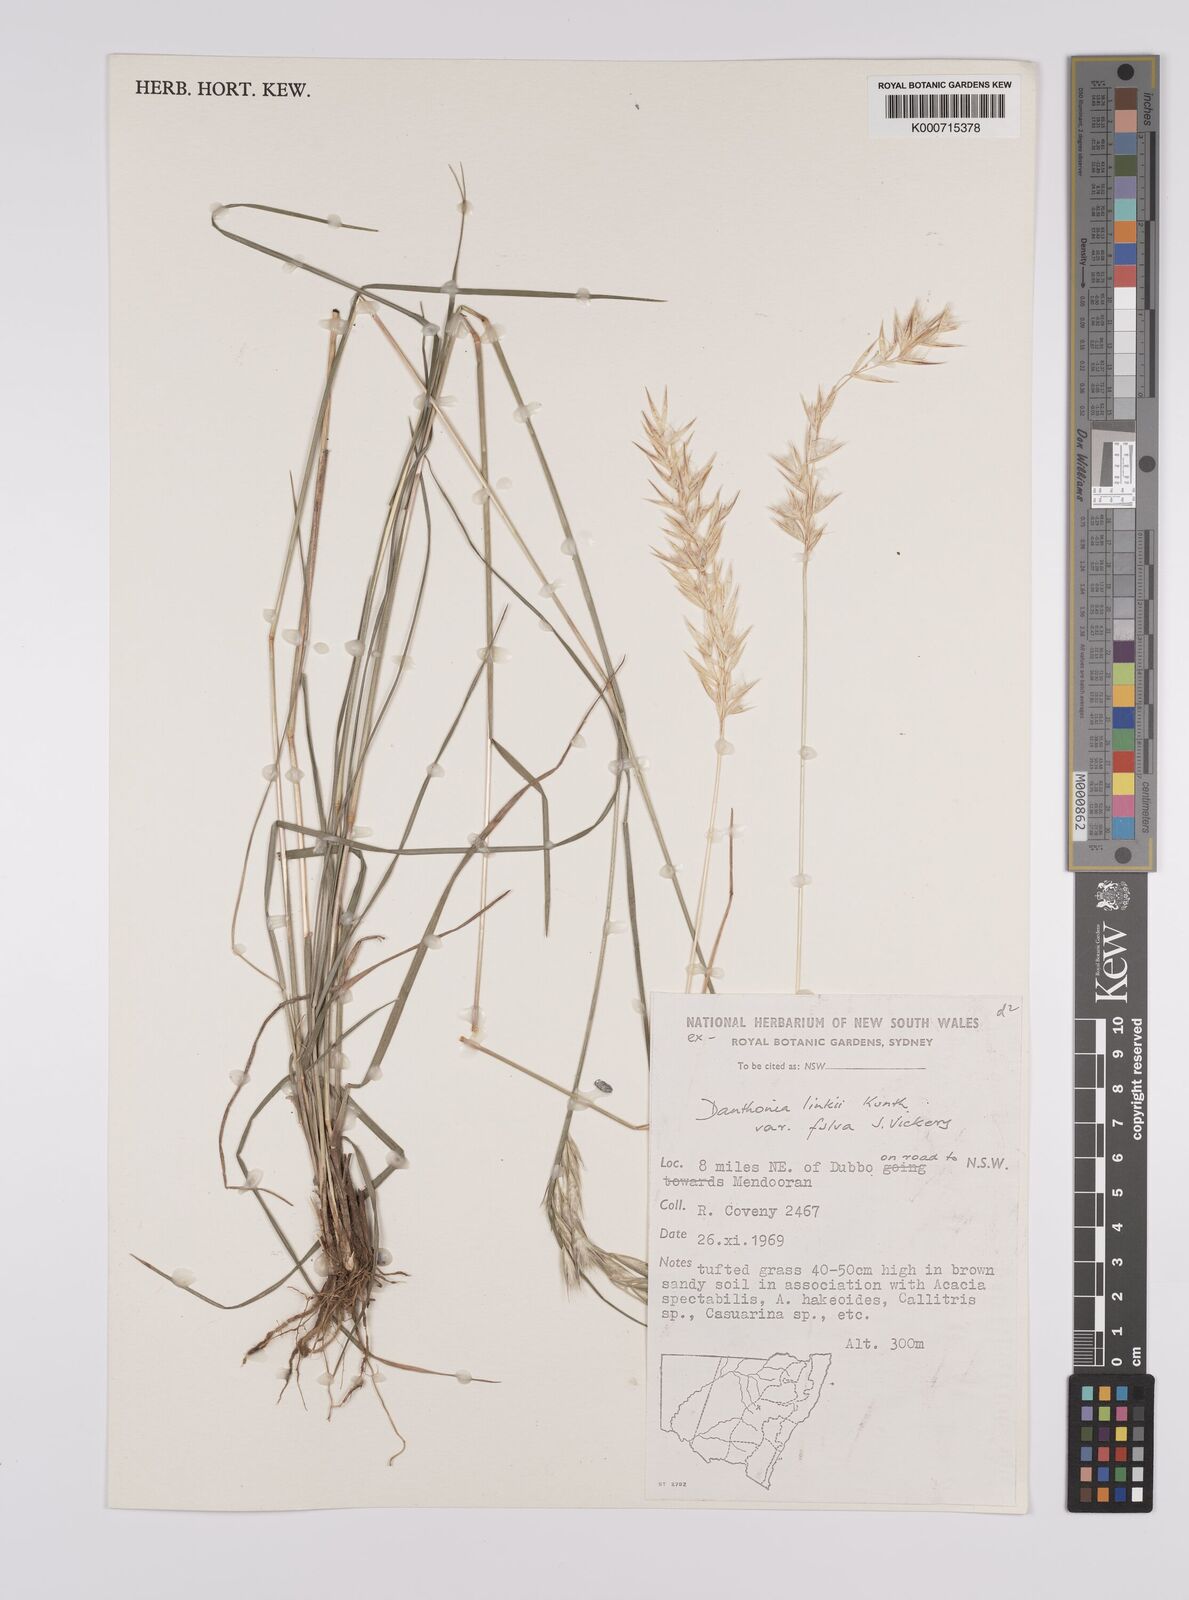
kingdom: Plantae
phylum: Tracheophyta
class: Liliopsida
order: Poales
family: Poaceae
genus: Rytidosperma
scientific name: Rytidosperma bipartitum
